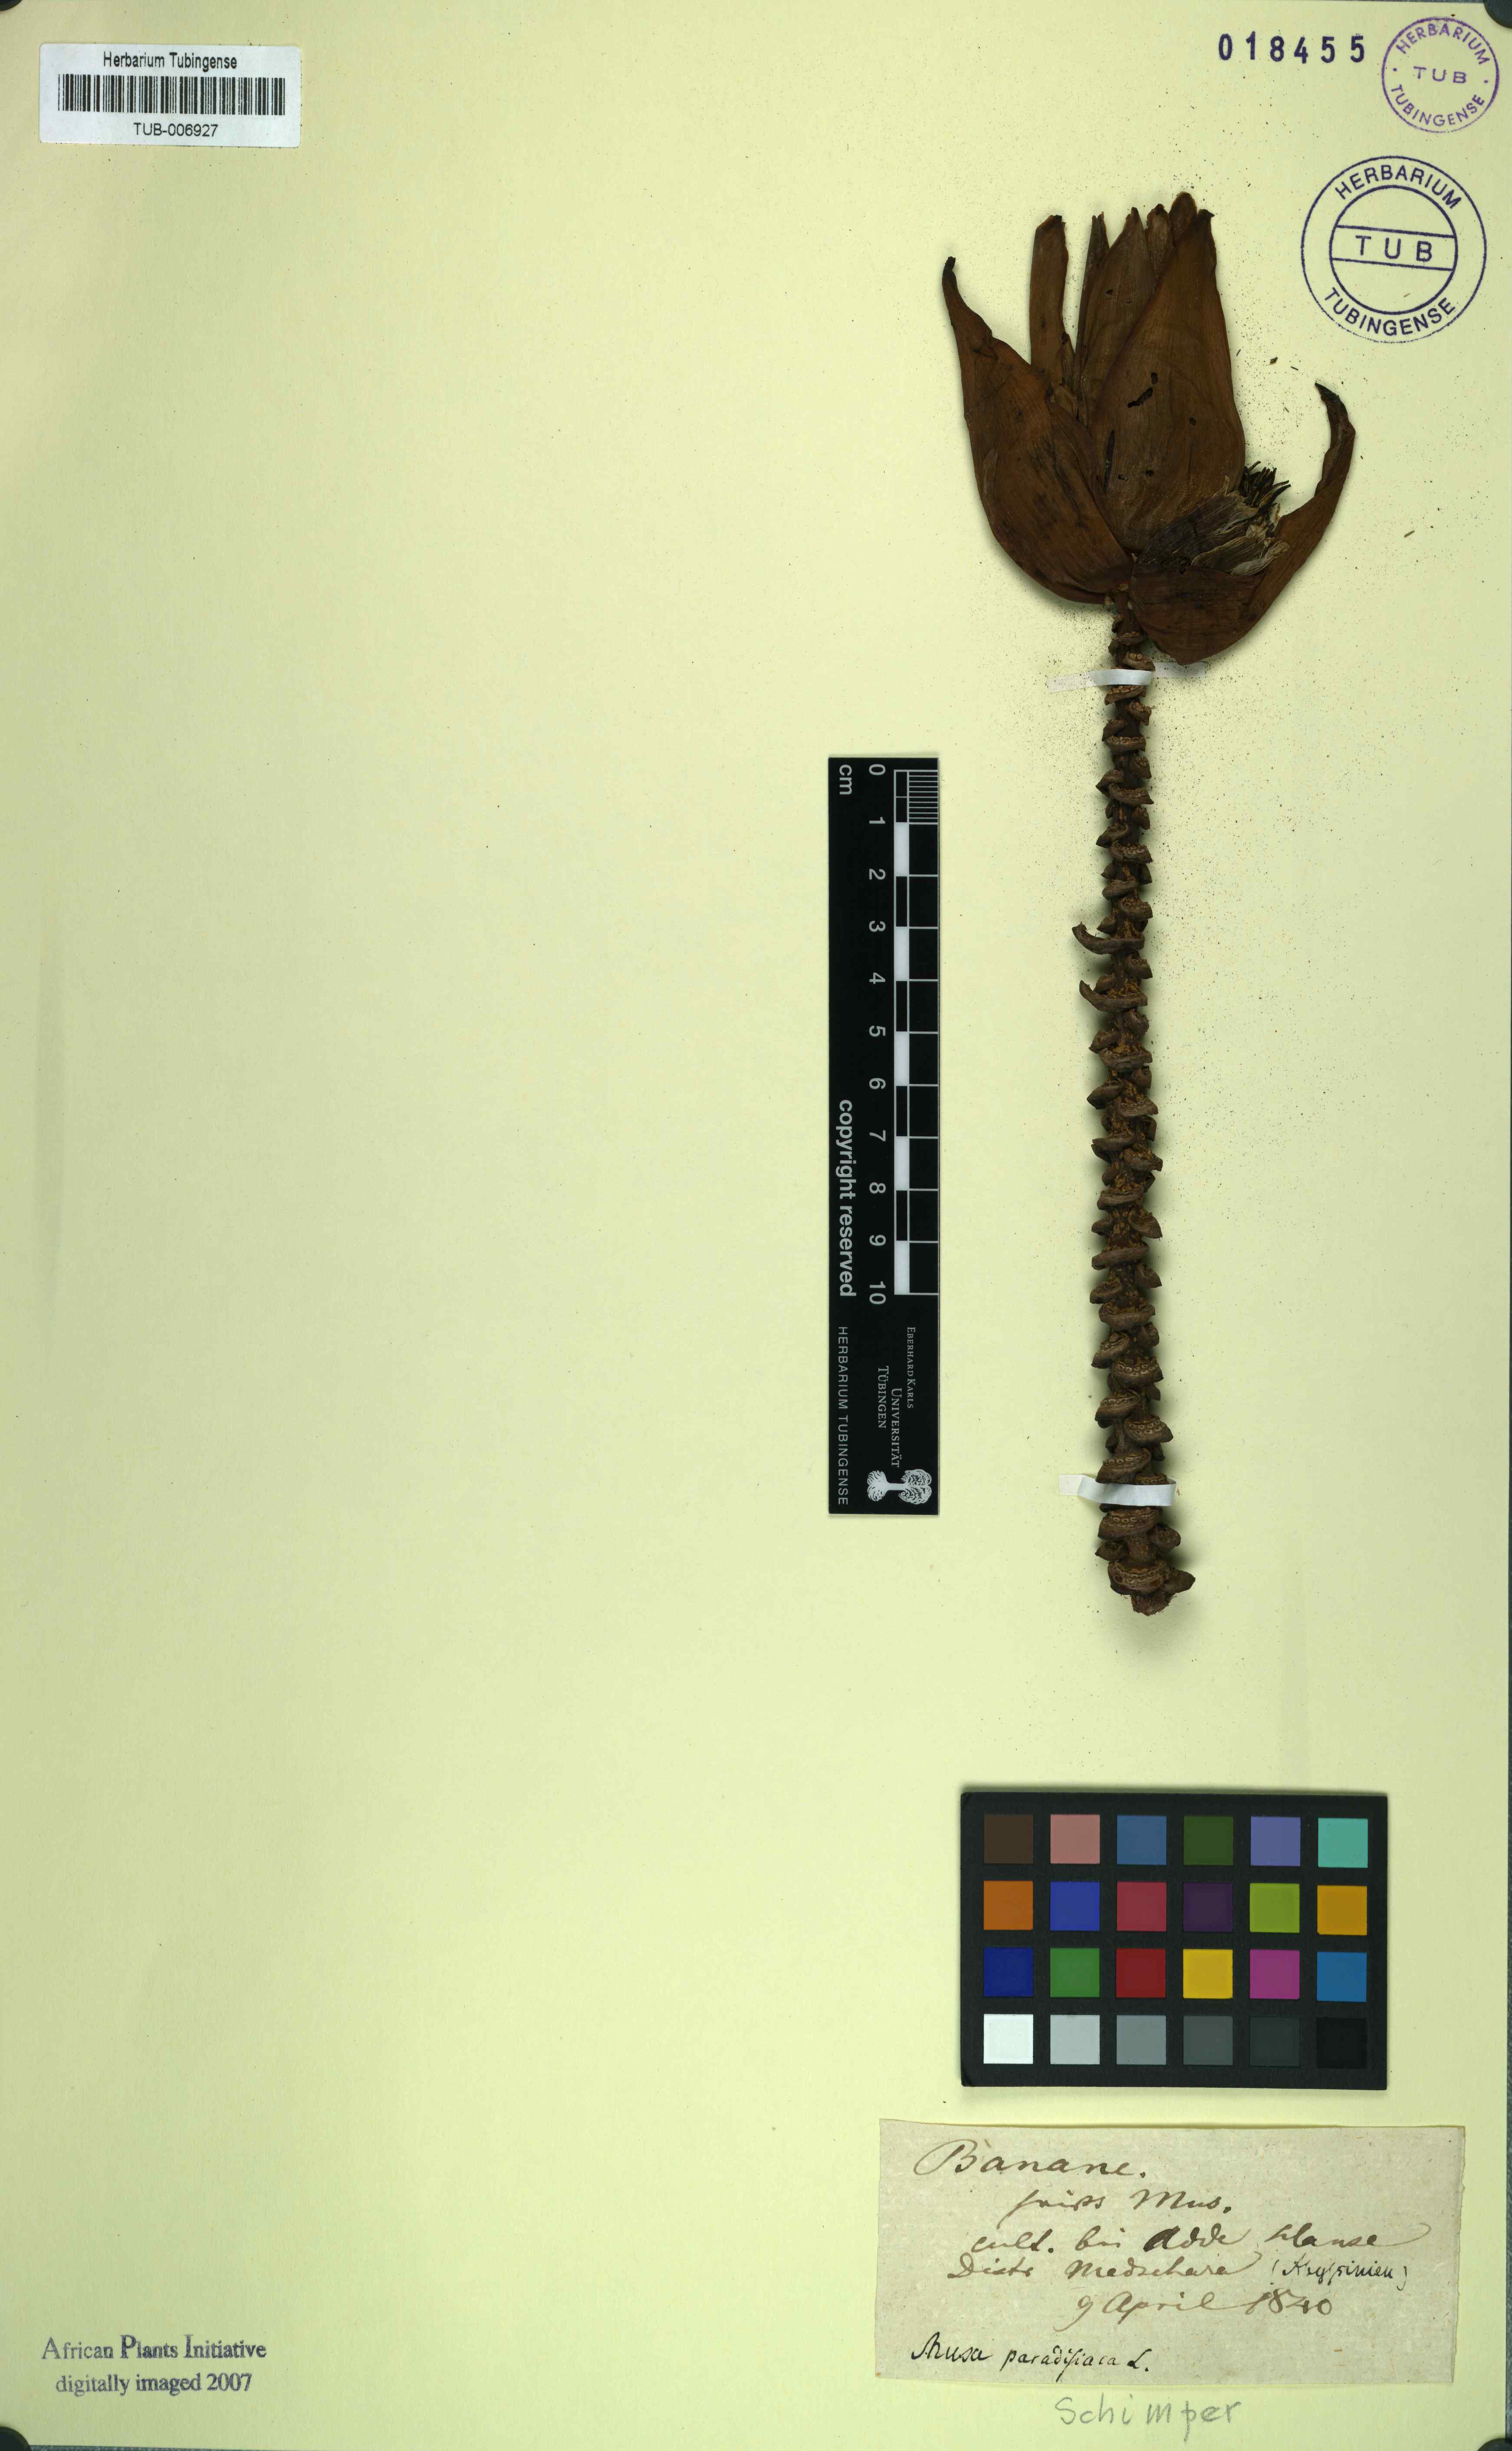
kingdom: Plantae
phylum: Tracheophyta
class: Liliopsida
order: Zingiberales
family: Musaceae
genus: Musa
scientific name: Musa paradisiaca
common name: French plantain
